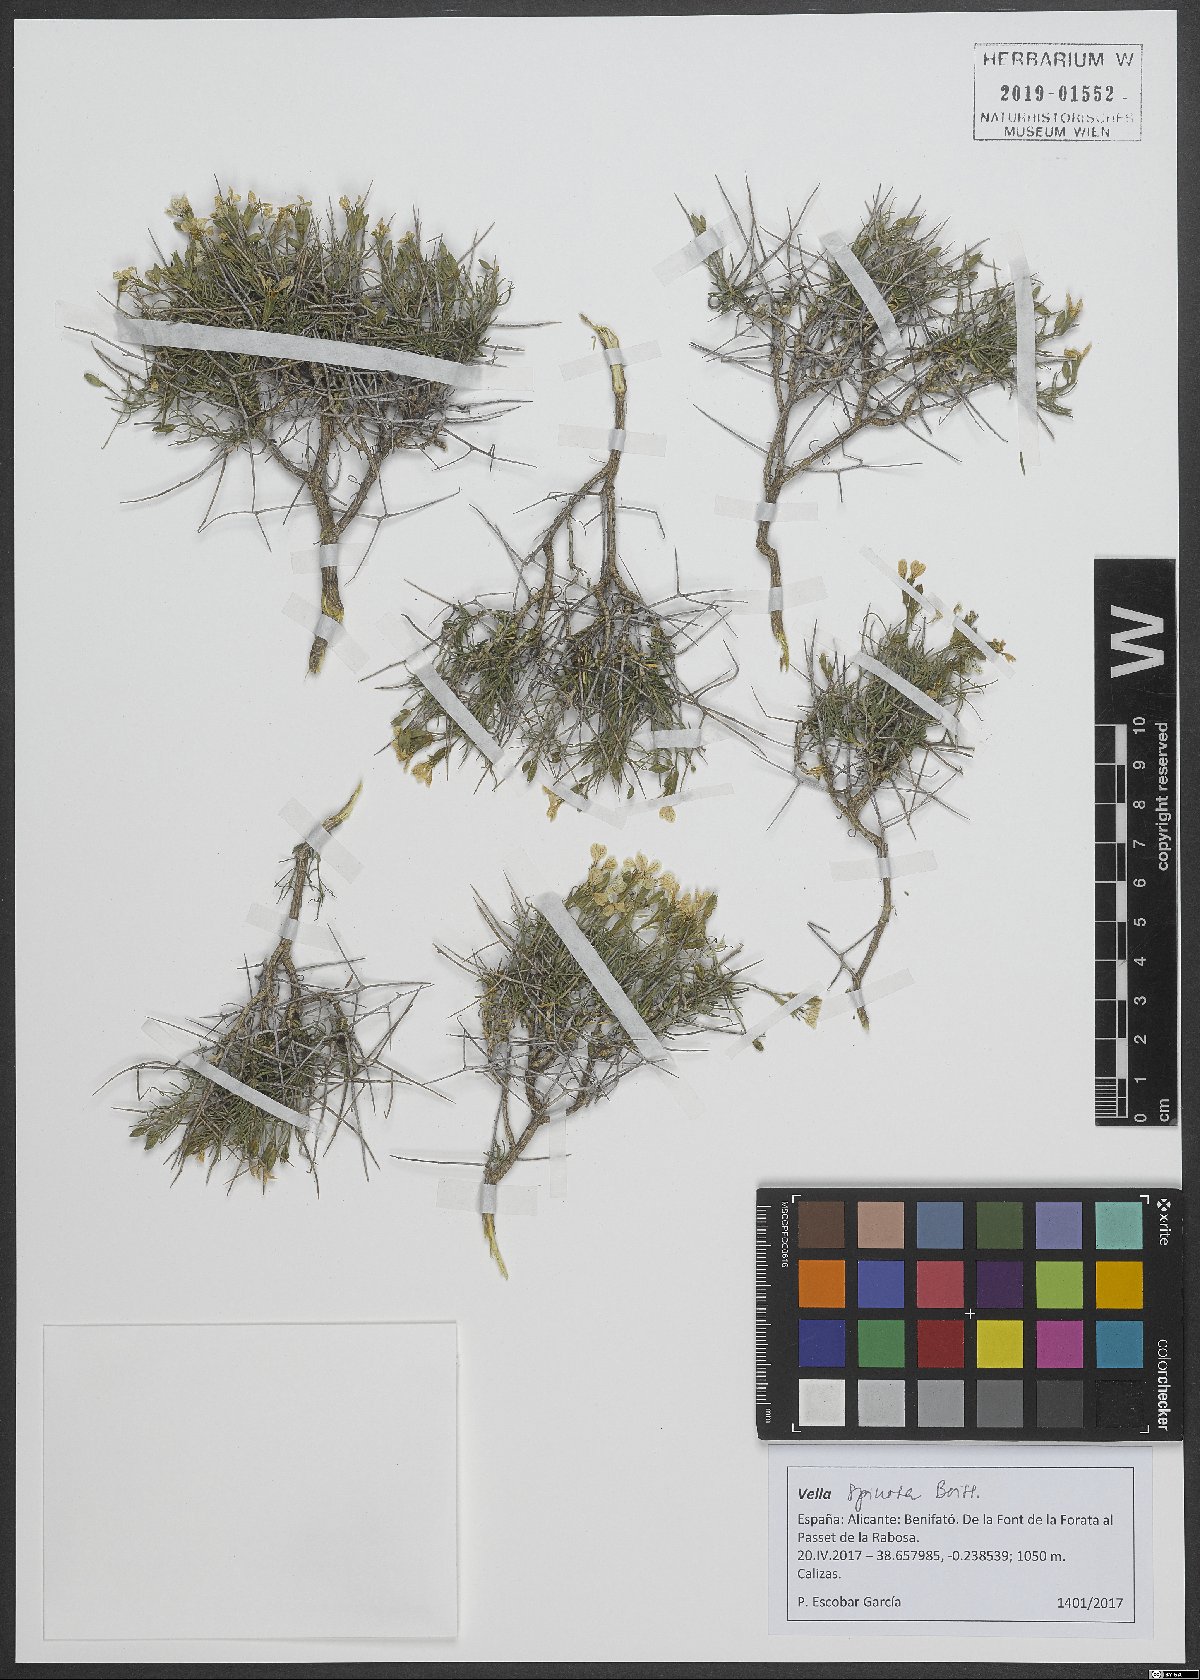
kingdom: Plantae
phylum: Tracheophyta
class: Magnoliopsida
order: Brassicales
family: Brassicaceae
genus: Vella
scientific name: Vella spinosa
